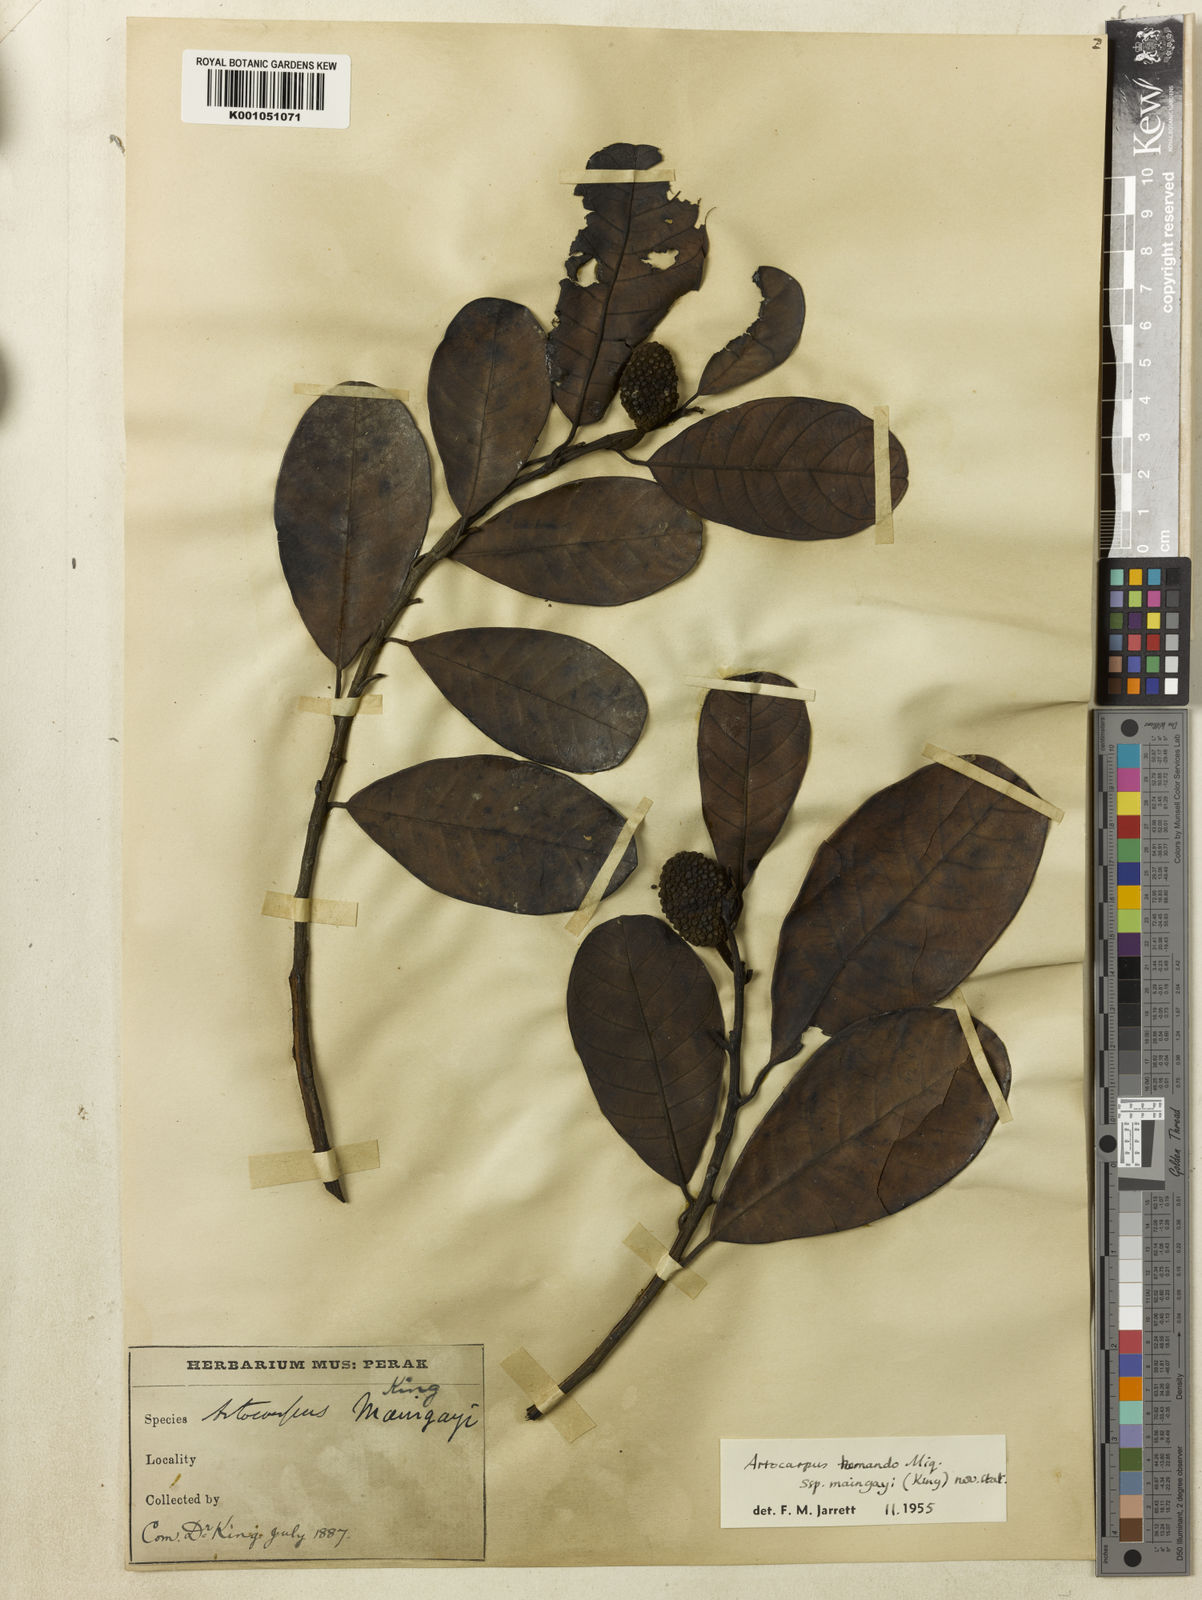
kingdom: Plantae
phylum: Tracheophyta
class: Magnoliopsida
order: Rosales
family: Moraceae
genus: Artocarpus
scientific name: Artocarpus kemando
